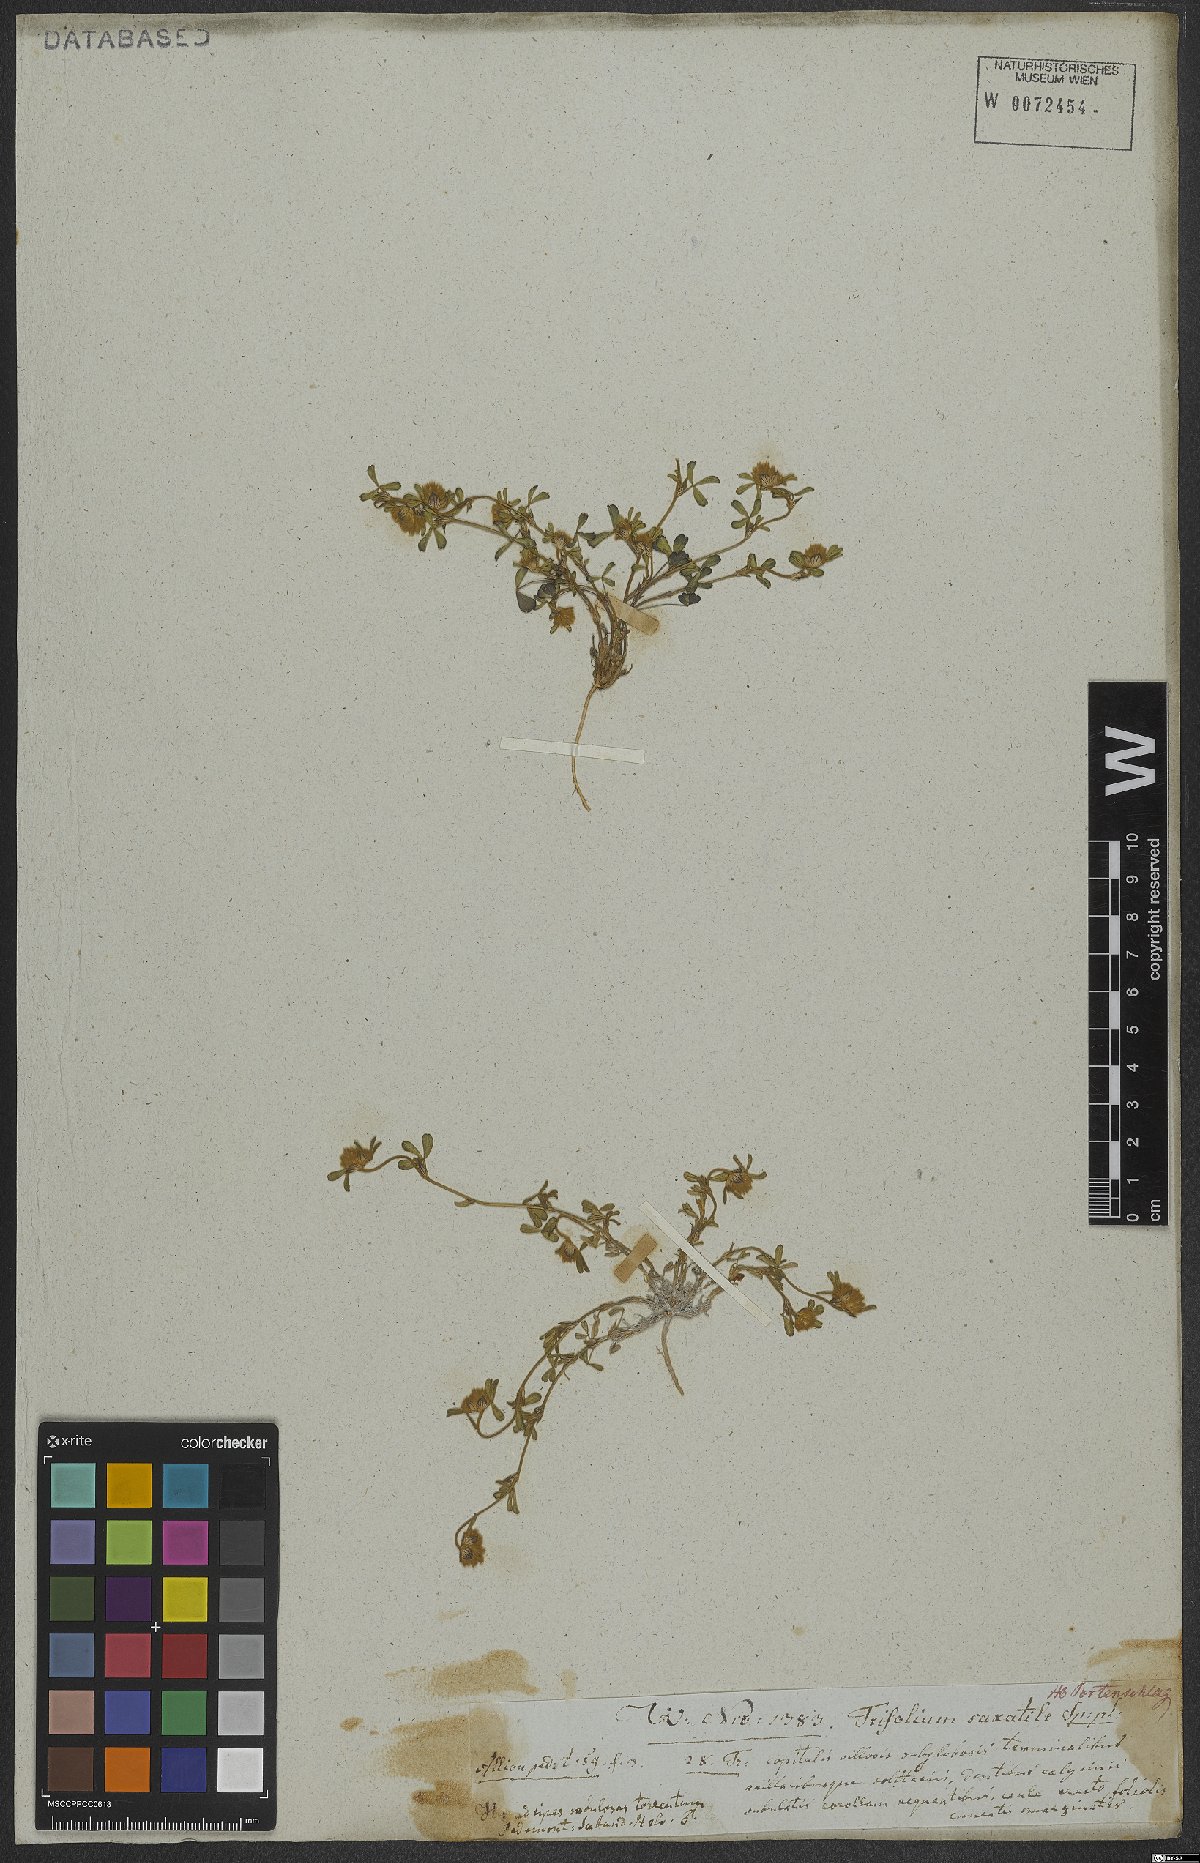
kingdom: Plantae
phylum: Tracheophyta
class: Magnoliopsida
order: Fabales
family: Fabaceae
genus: Trifolium
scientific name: Trifolium saxatile
